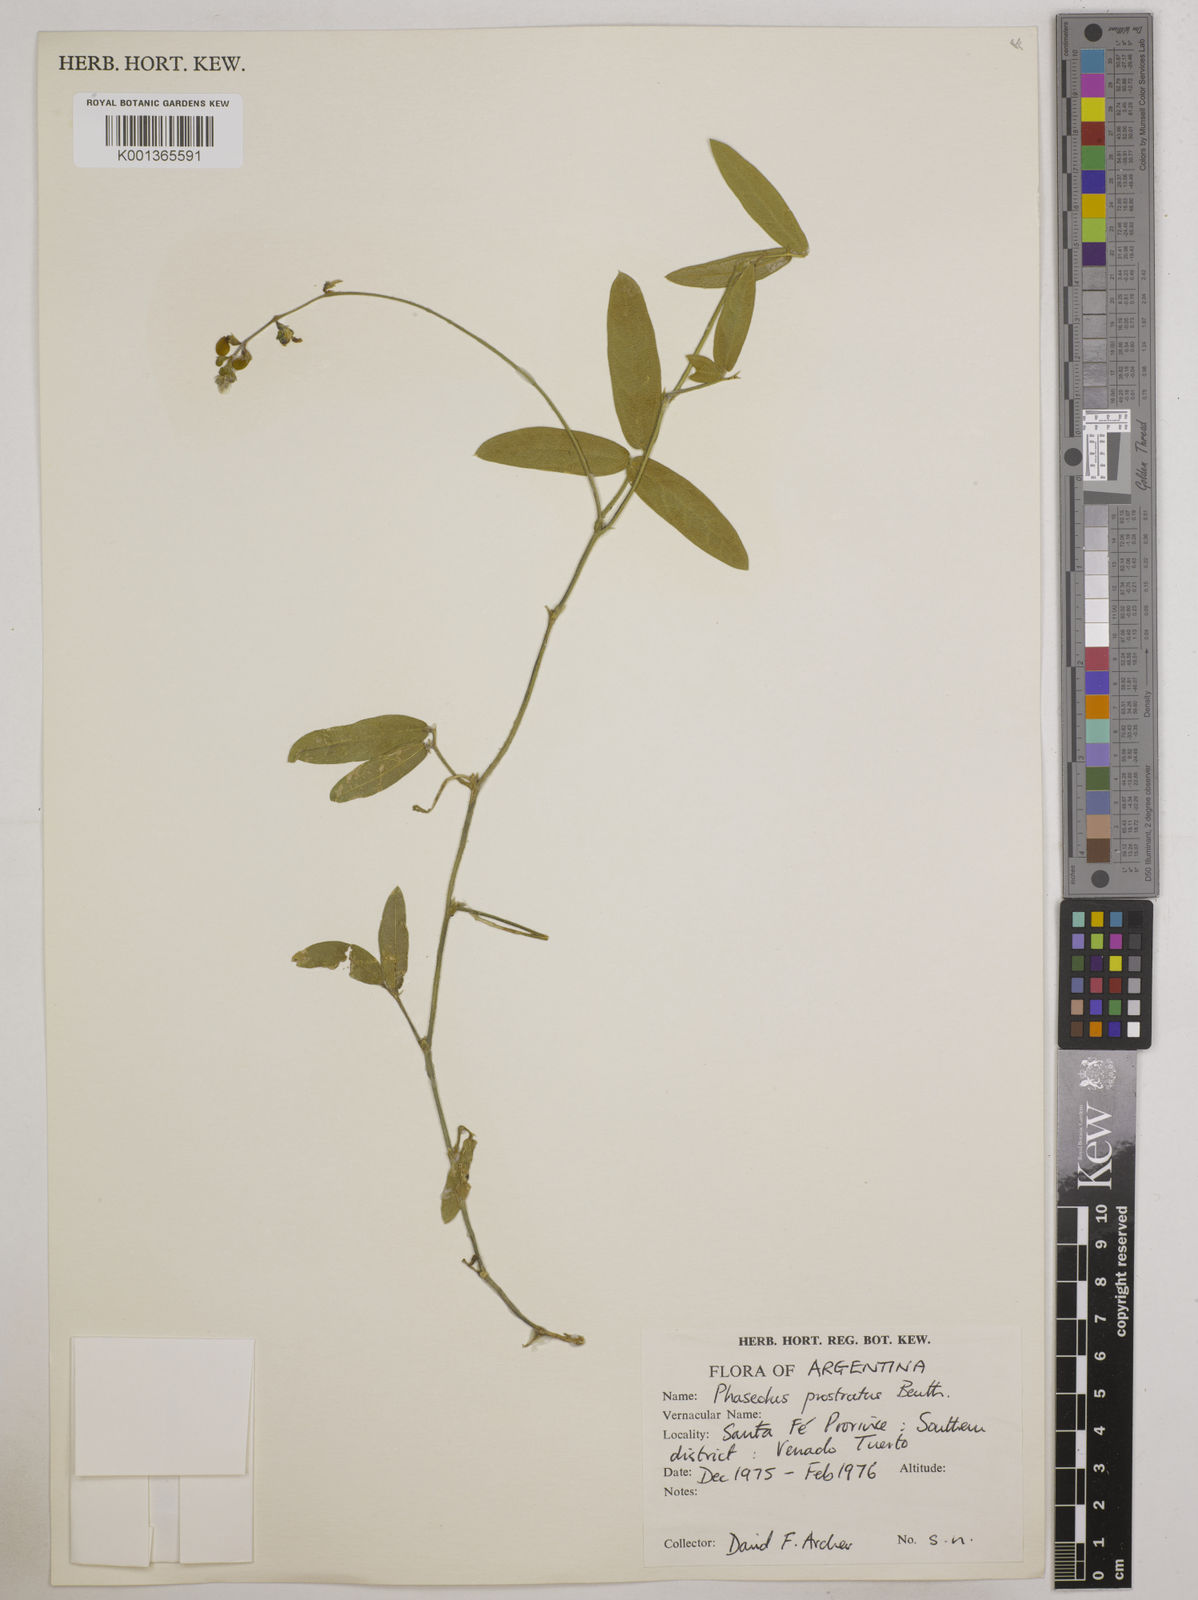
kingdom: Plantae
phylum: Tracheophyta
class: Magnoliopsida
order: Fabales
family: Fabaceae
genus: Macroptilium
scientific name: Macroptilium prostratum
